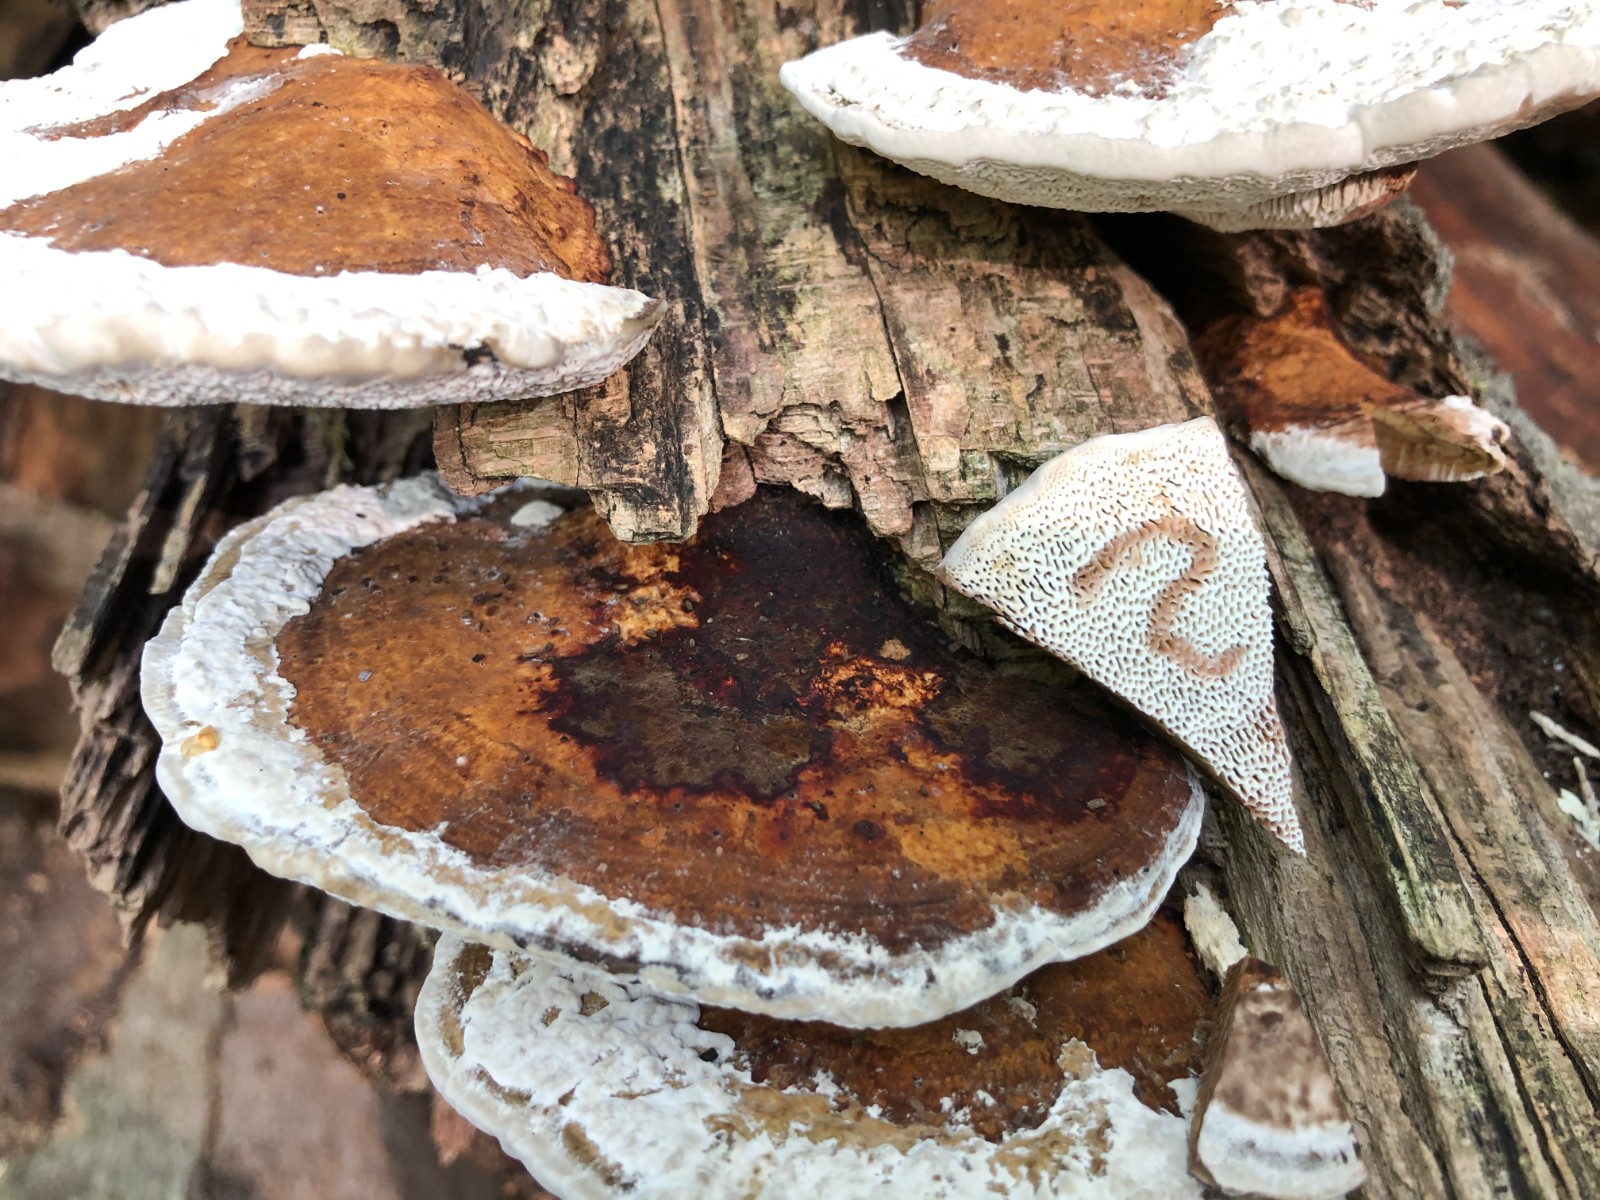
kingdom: Fungi
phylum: Basidiomycota
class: Agaricomycetes
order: Polyporales
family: Polyporaceae
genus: Daedaleopsis
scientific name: Daedaleopsis confragosa
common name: rødmende læderporesvamp
